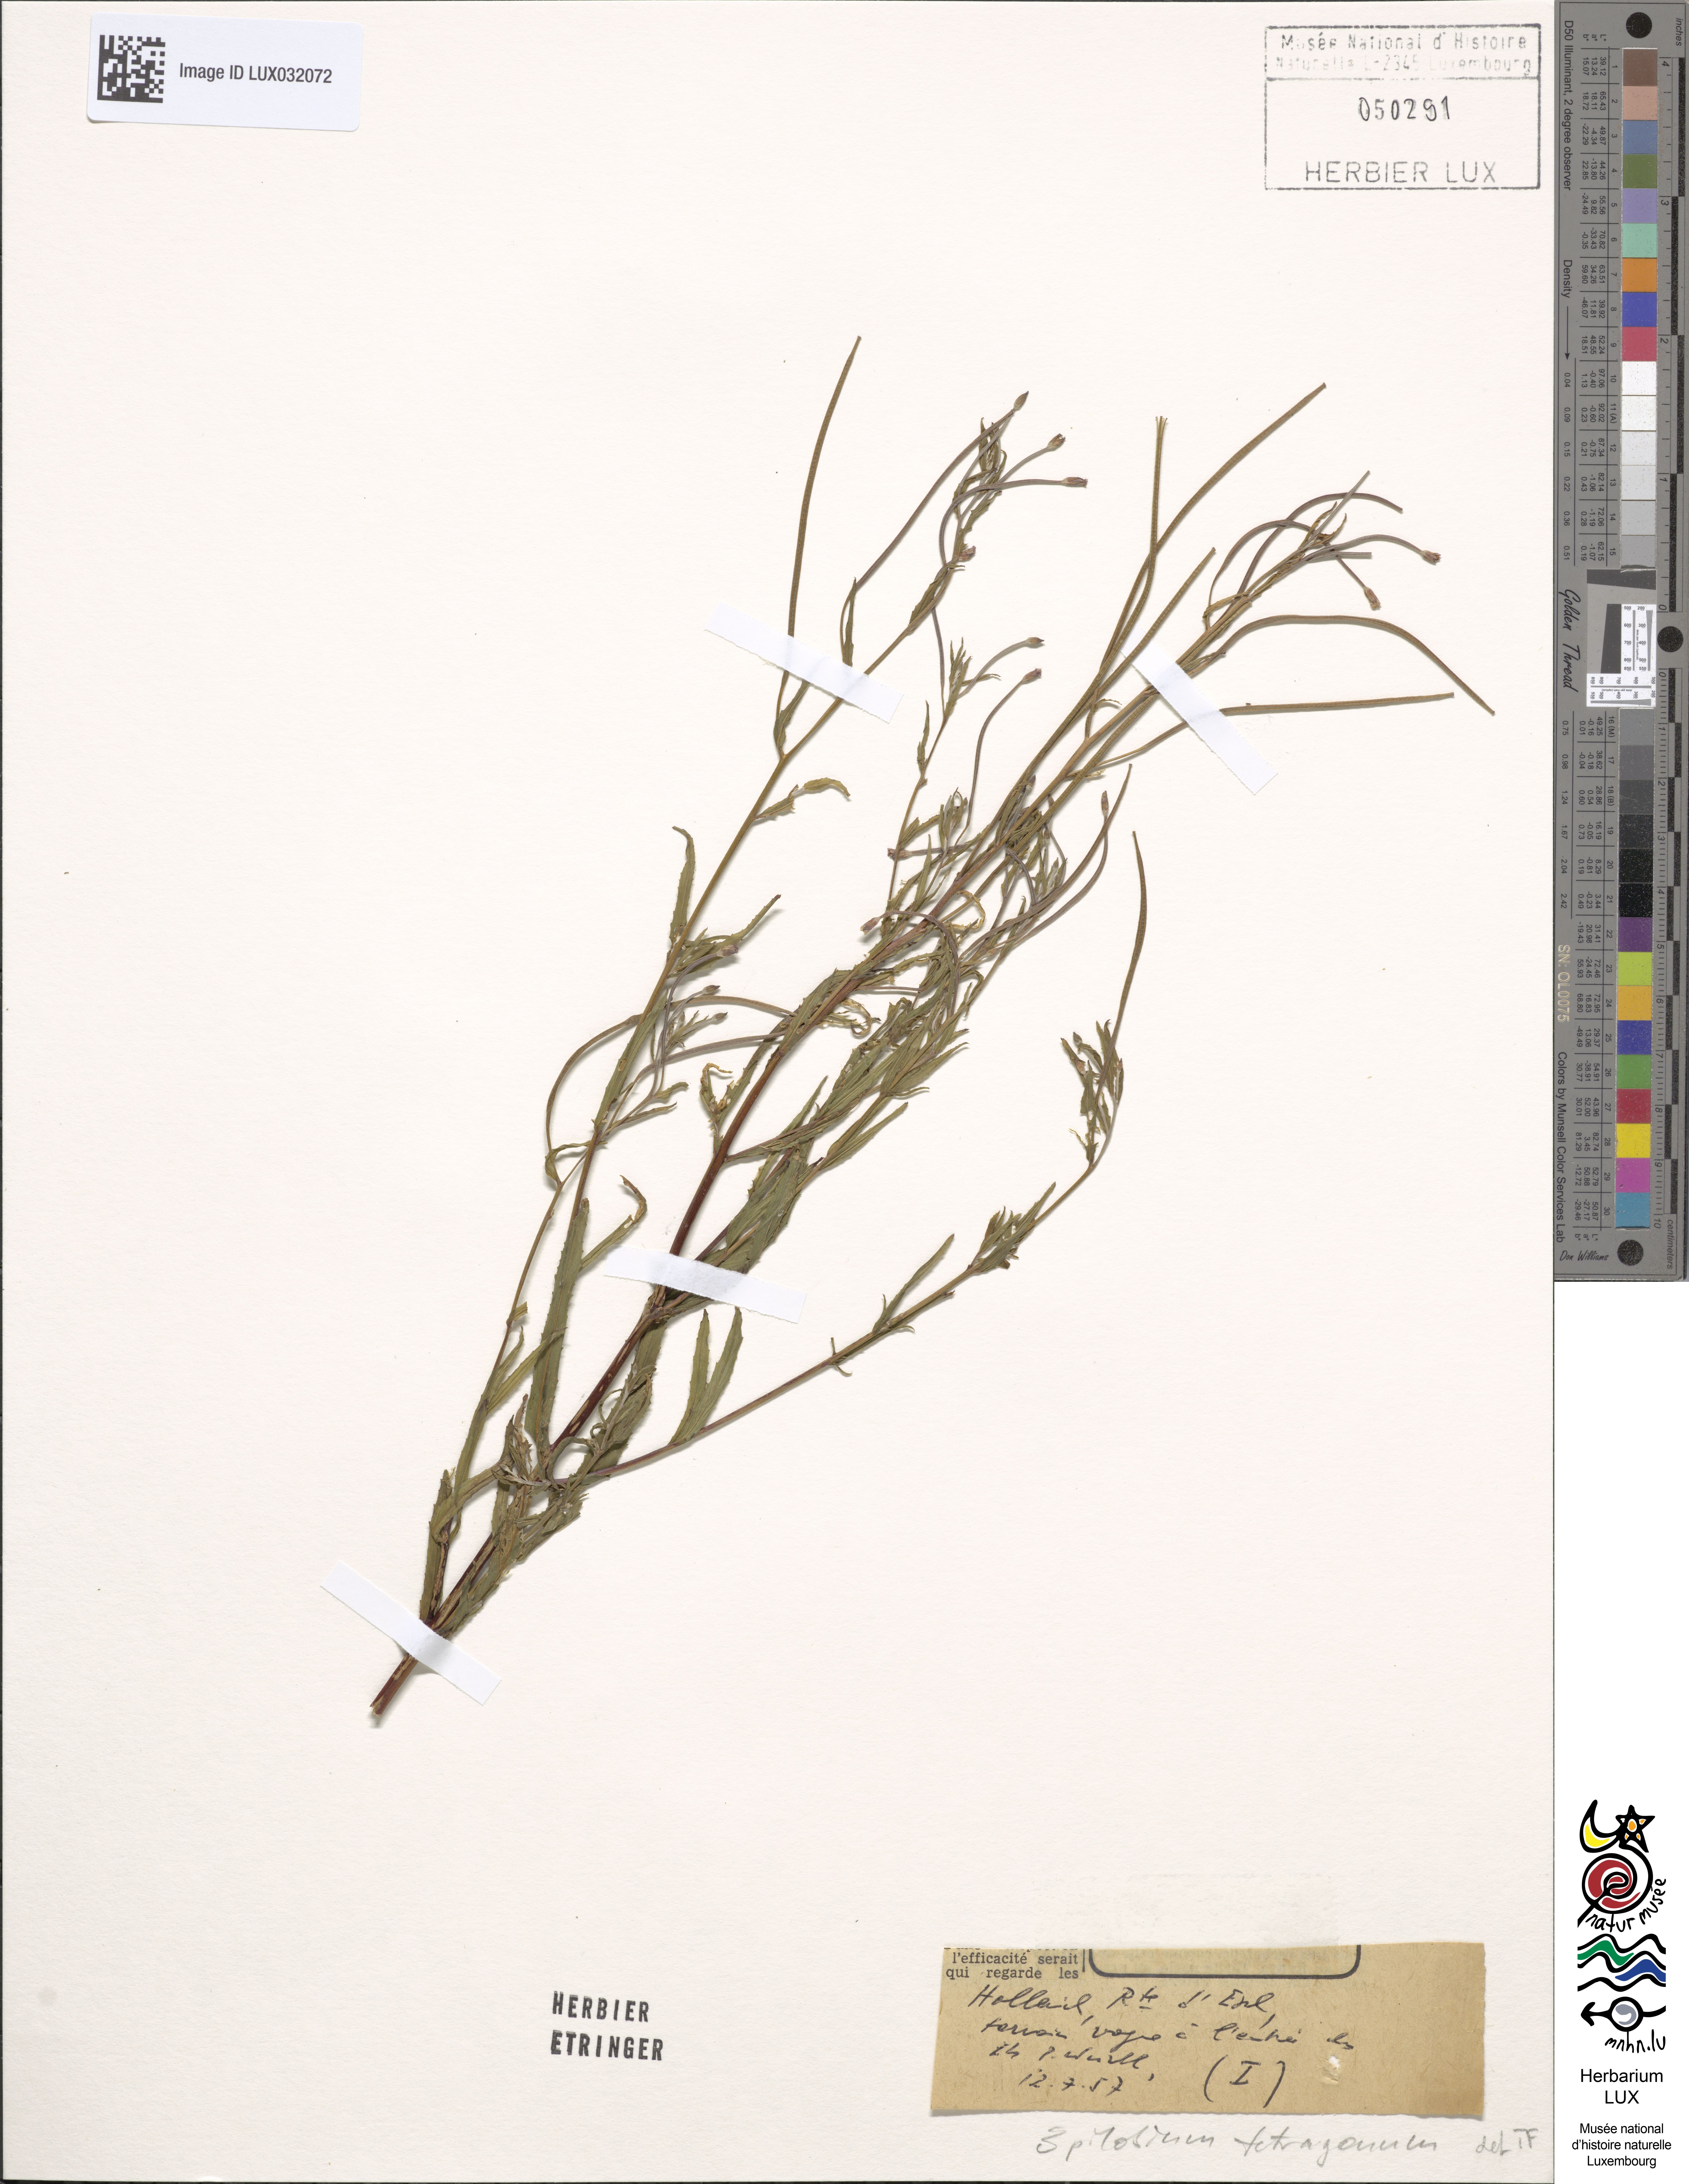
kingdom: Plantae
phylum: Tracheophyta
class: Magnoliopsida
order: Myrtales
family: Onagraceae
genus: Epilobium
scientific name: Epilobium tetragonum
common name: Square-stemmed willowherb
